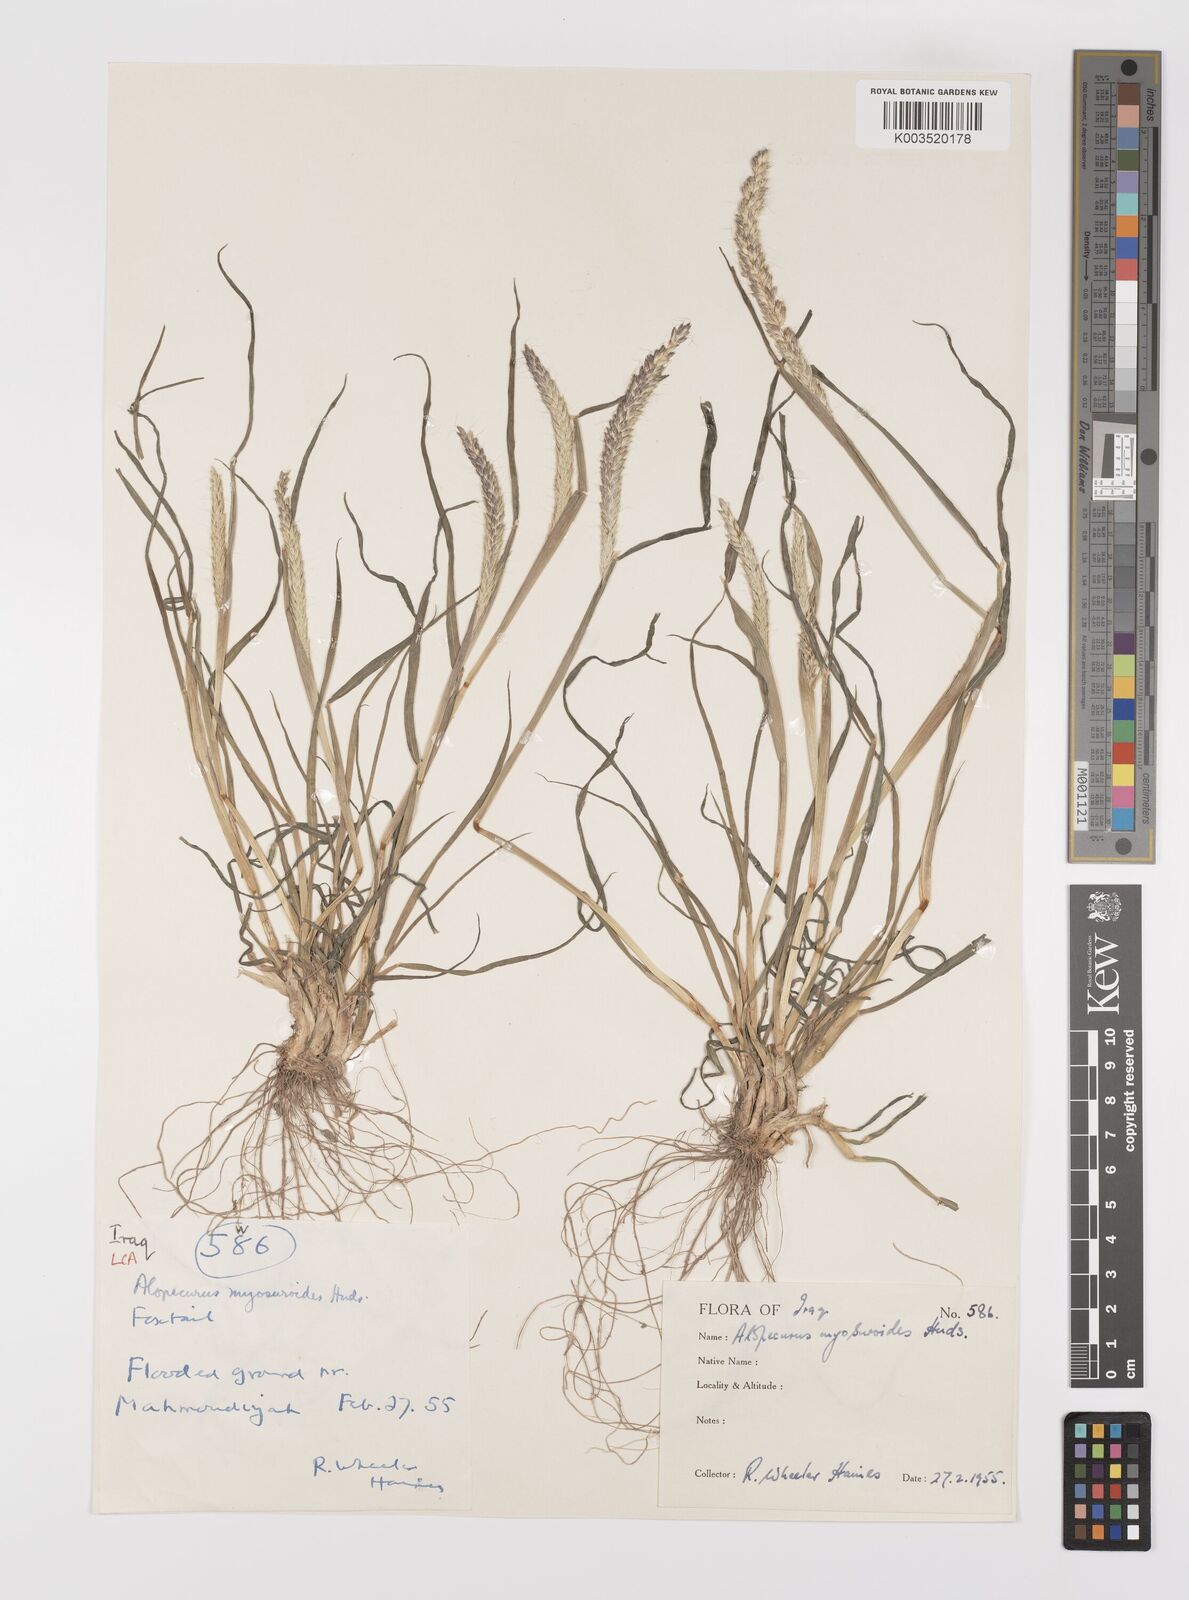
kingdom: Plantae
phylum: Tracheophyta
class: Liliopsida
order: Poales
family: Poaceae
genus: Alopecurus
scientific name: Alopecurus myosuroides
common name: Black-grass
